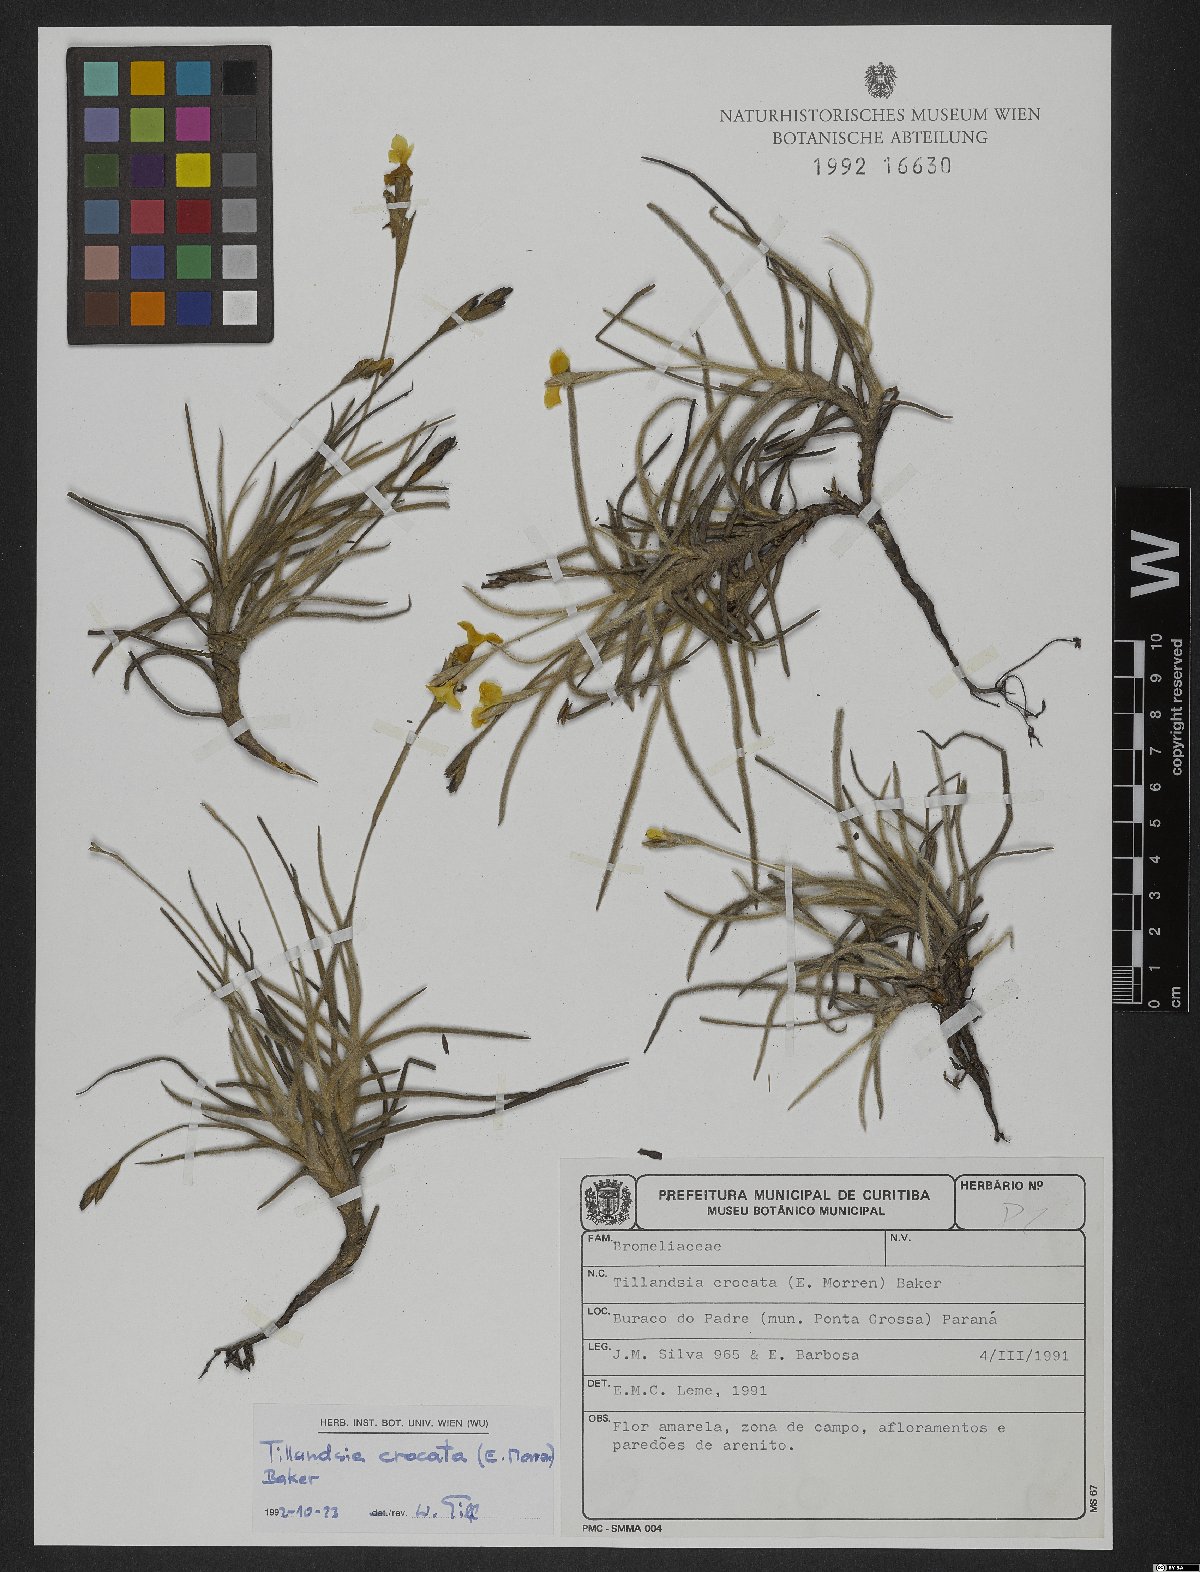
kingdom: Plantae
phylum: Tracheophyta
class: Liliopsida
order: Poales
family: Bromeliaceae
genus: Tillandsia
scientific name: Tillandsia crocata
